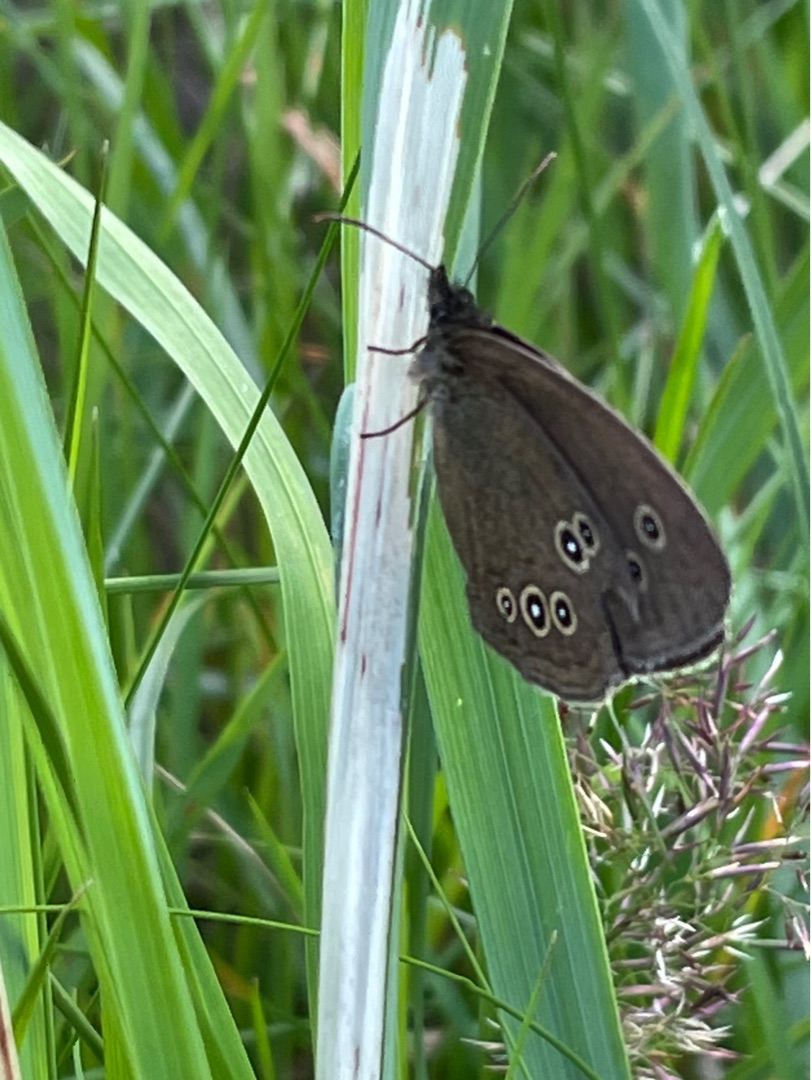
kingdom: Animalia
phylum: Arthropoda
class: Insecta
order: Lepidoptera
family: Nymphalidae
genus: Aphantopus
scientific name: Aphantopus hyperantus
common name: Engrandøje
